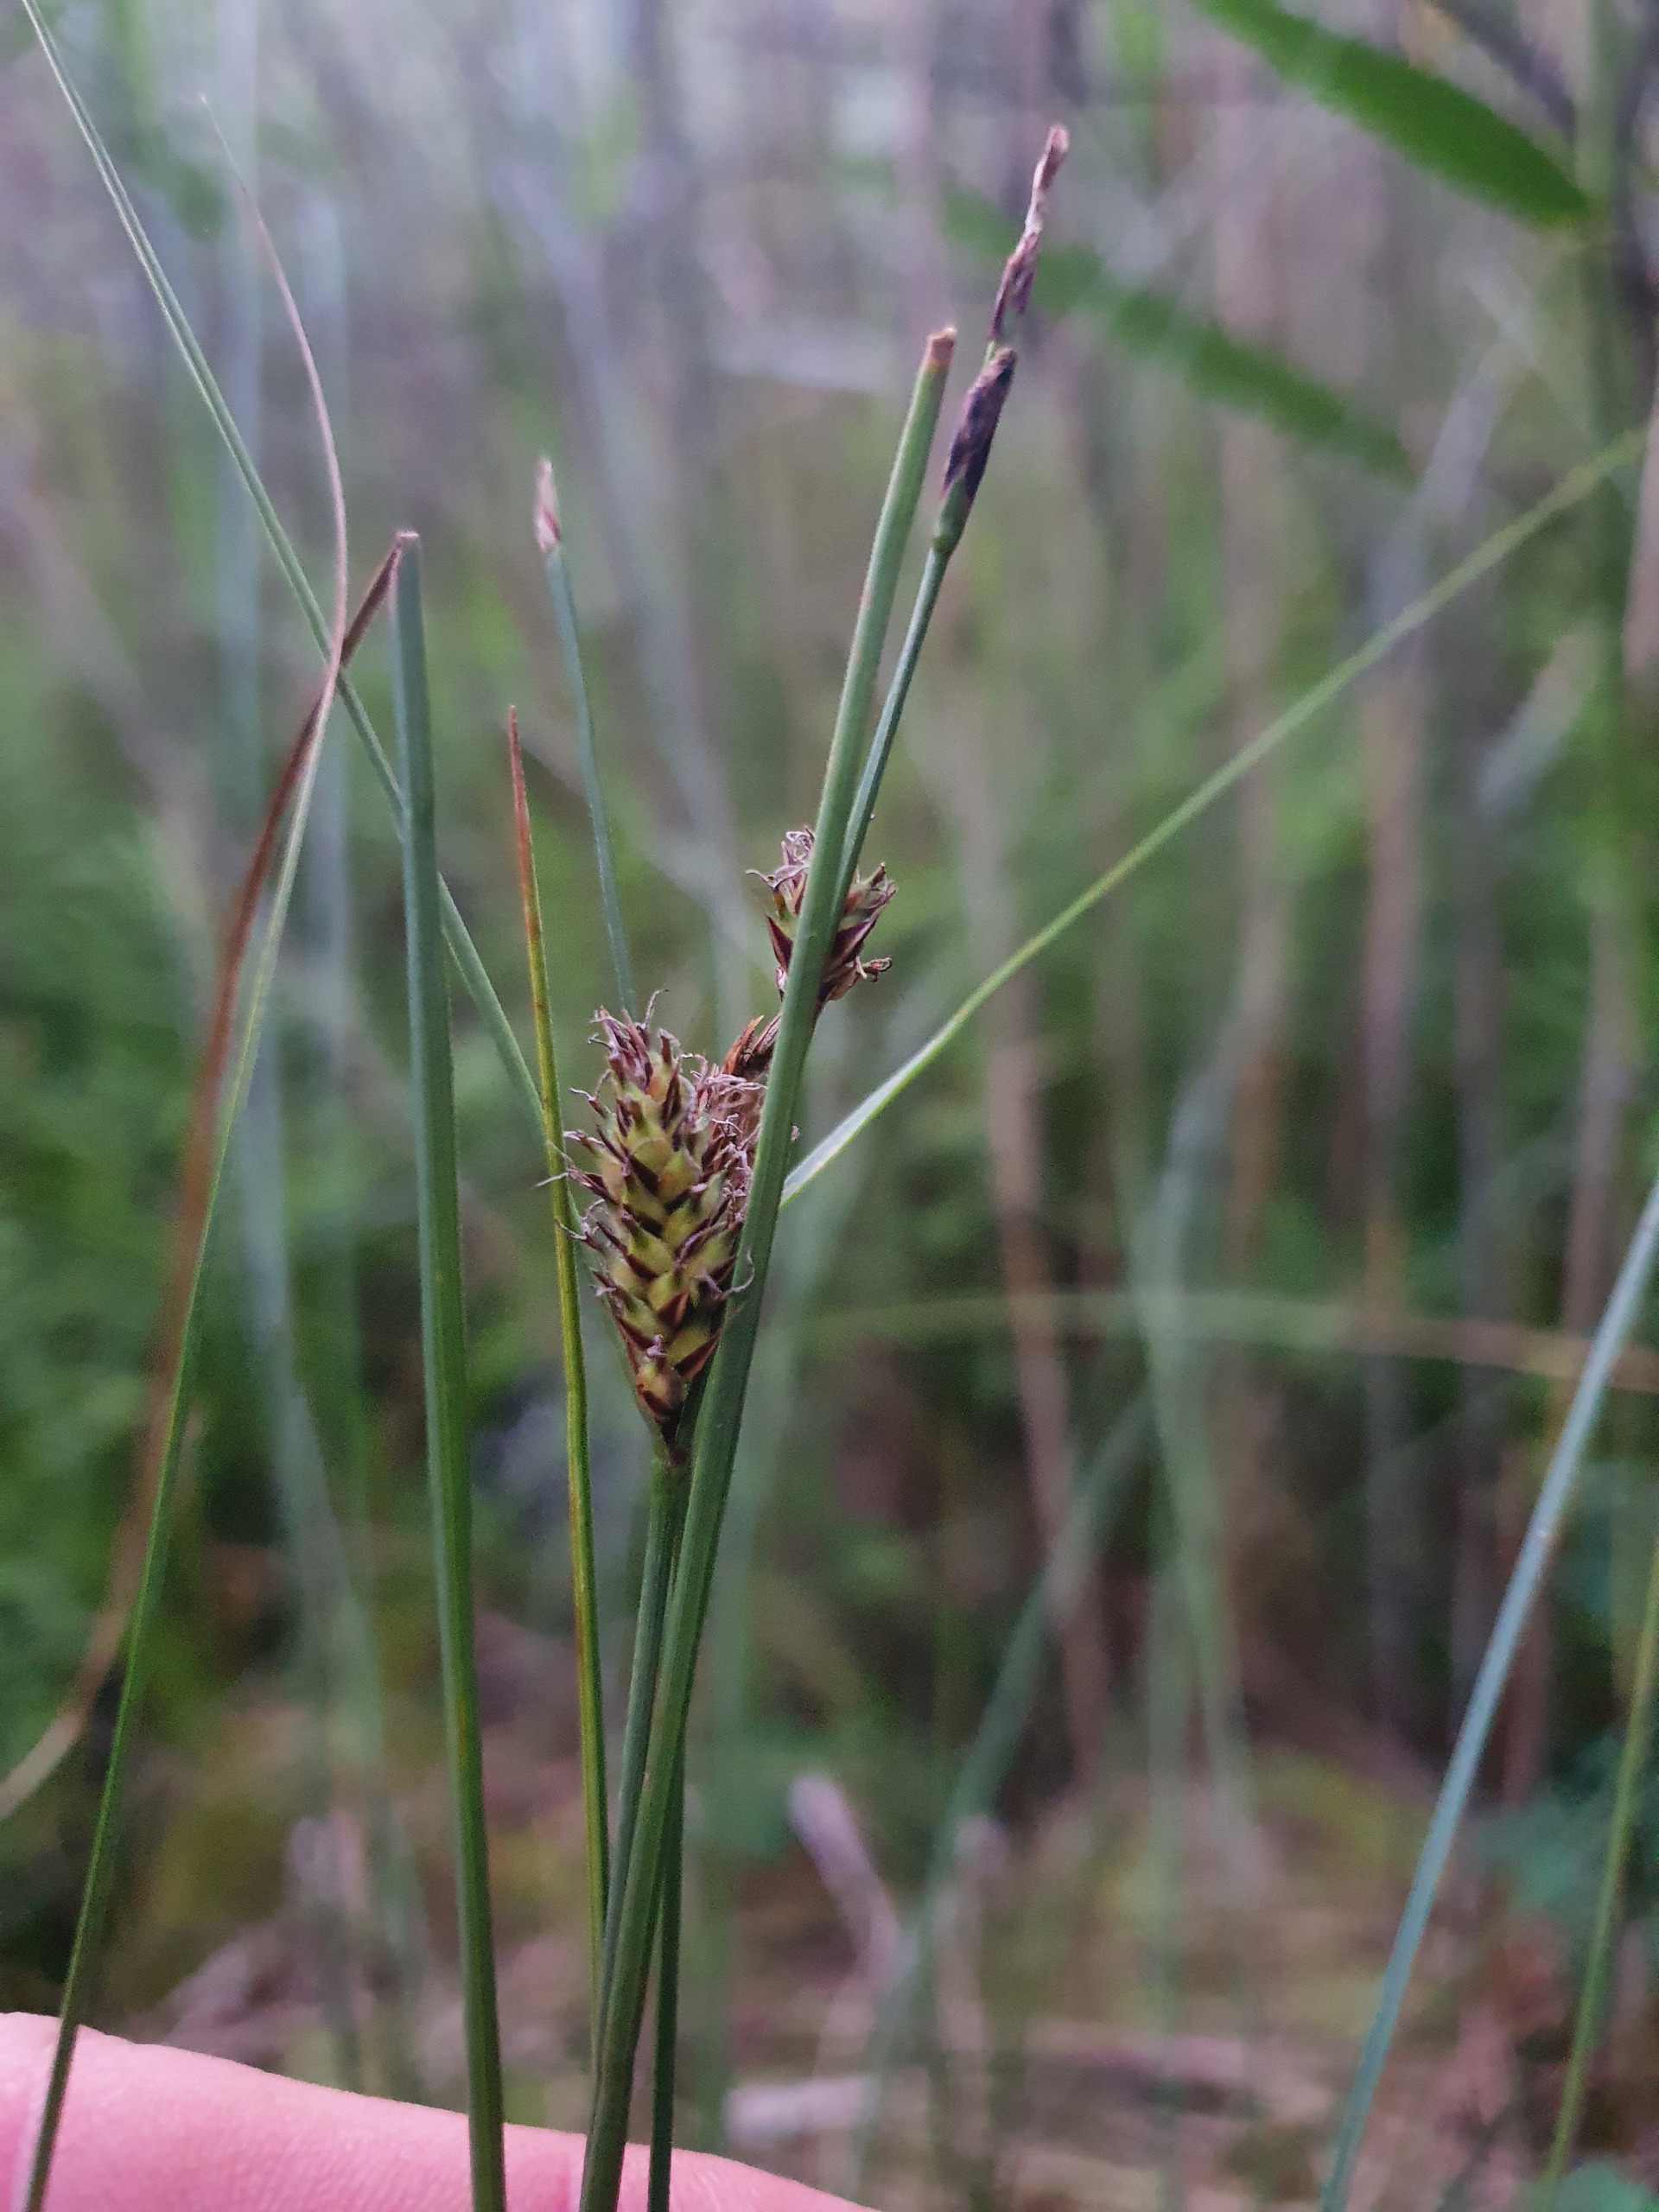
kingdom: Plantae
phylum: Tracheophyta
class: Liliopsida
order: Poales
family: Cyperaceae
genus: Carex
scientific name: Carex lasiocarpa
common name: Tråd-star
